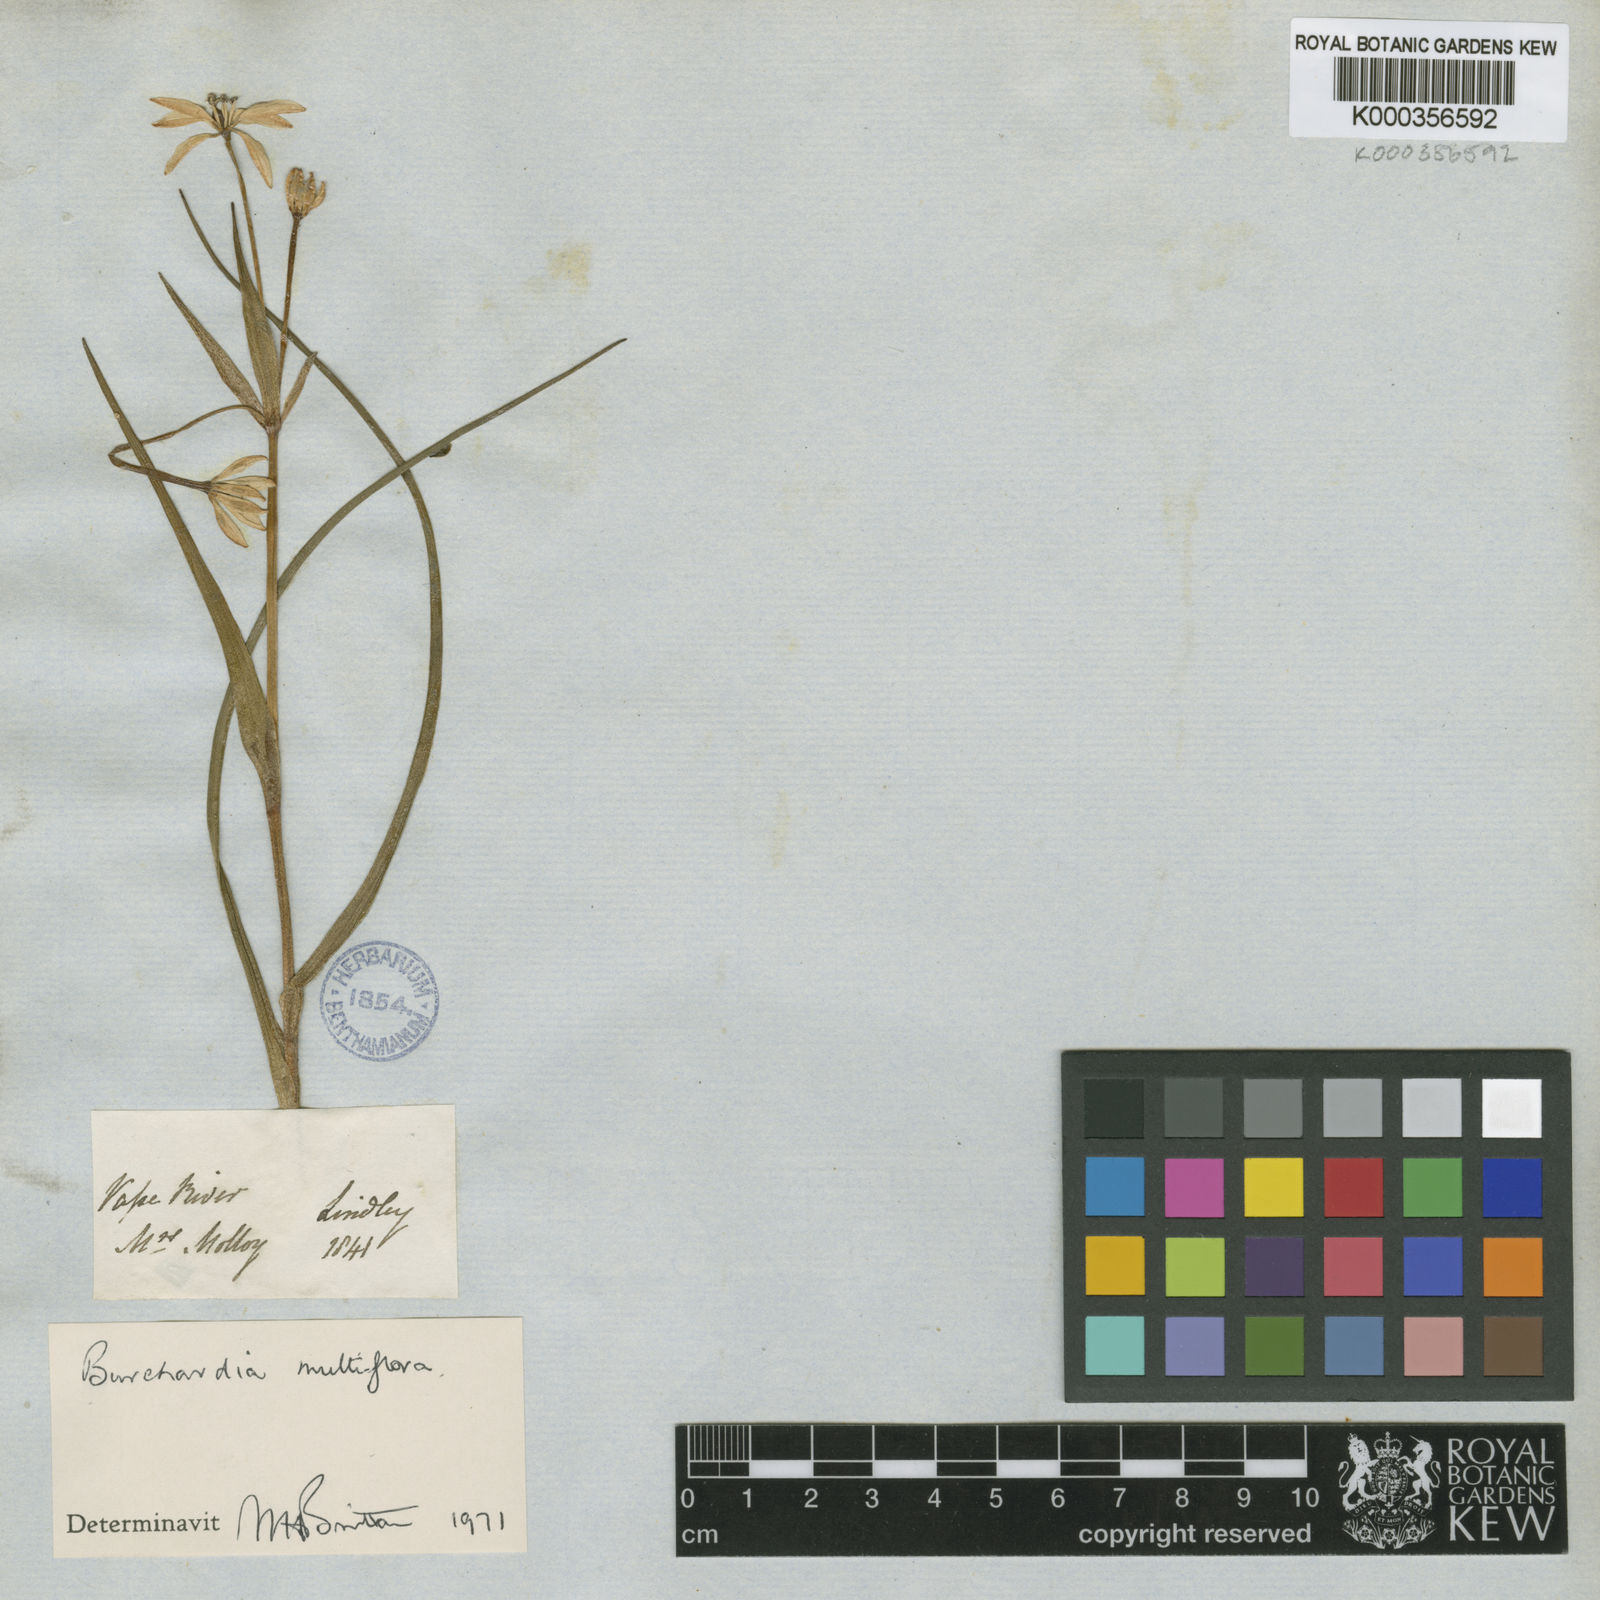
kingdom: Plantae
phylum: Tracheophyta
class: Liliopsida
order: Liliales
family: Colchicaceae
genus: Burchardia
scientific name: Burchardia multiflora
